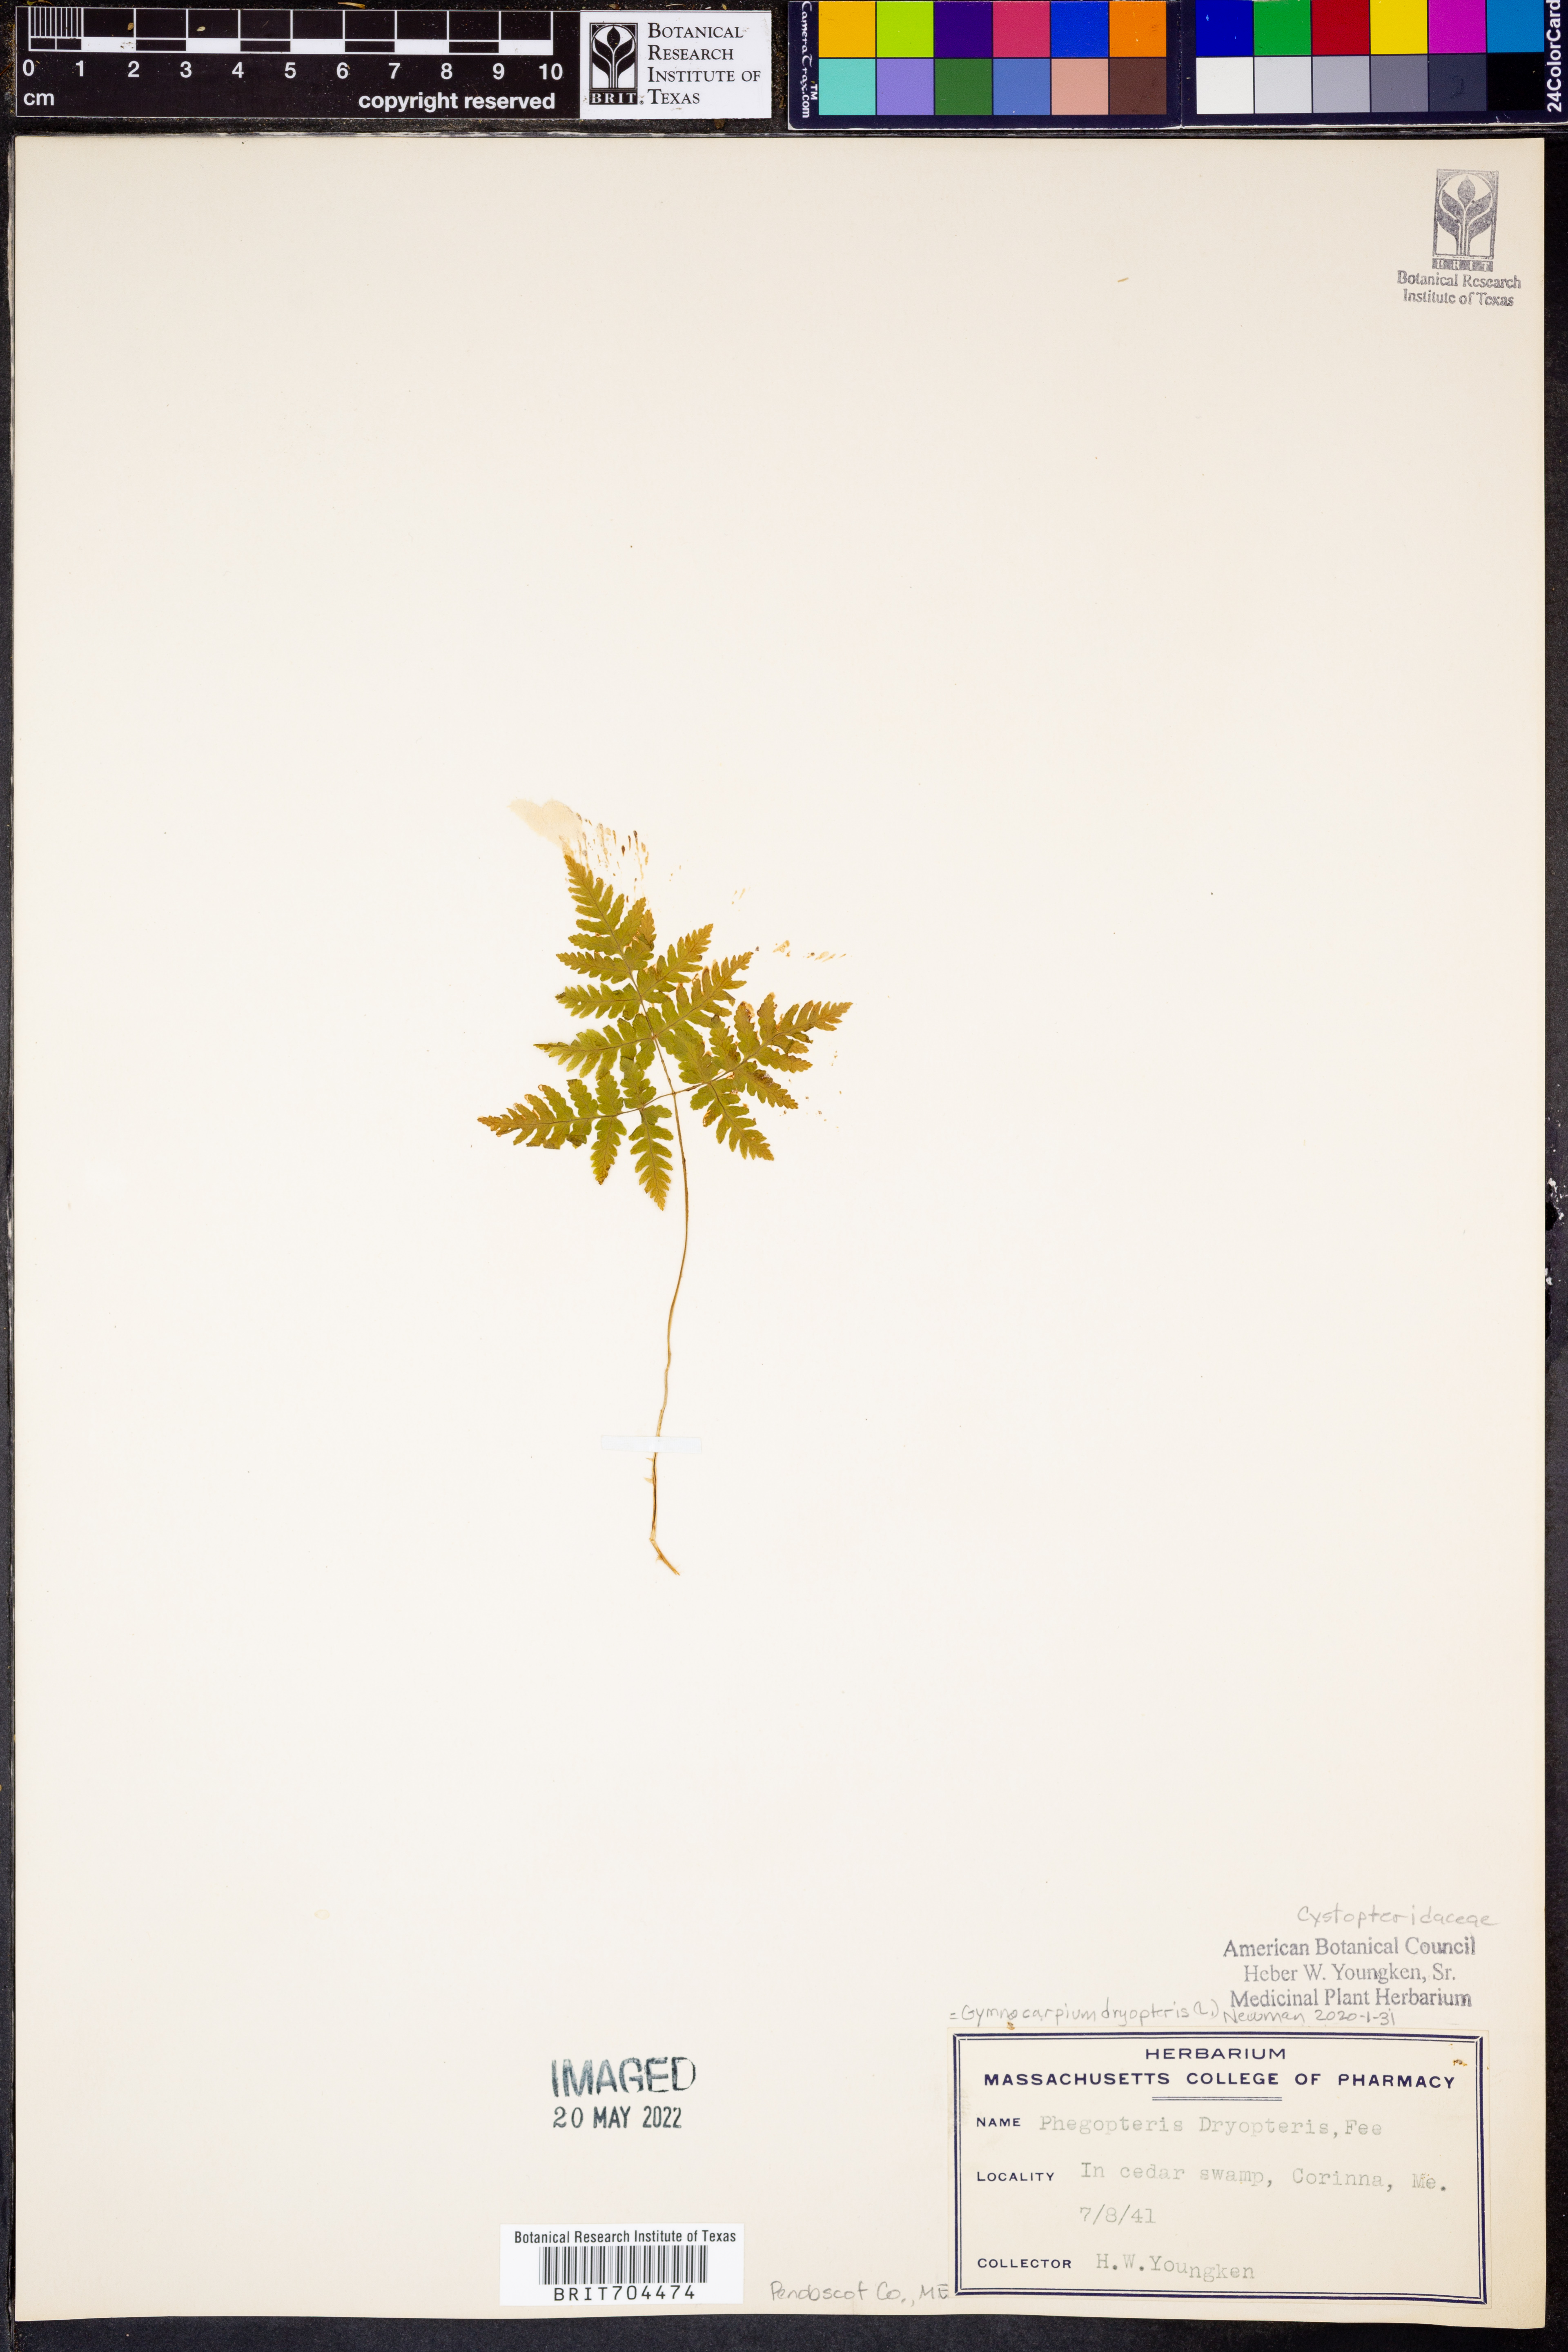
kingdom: Plantae
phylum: Tracheophyta
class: Polypodiopsida
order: Polypodiales
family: Cystopteridaceae
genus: Gymnocarpium
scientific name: Gymnocarpium dryopteris
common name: Oak fern
